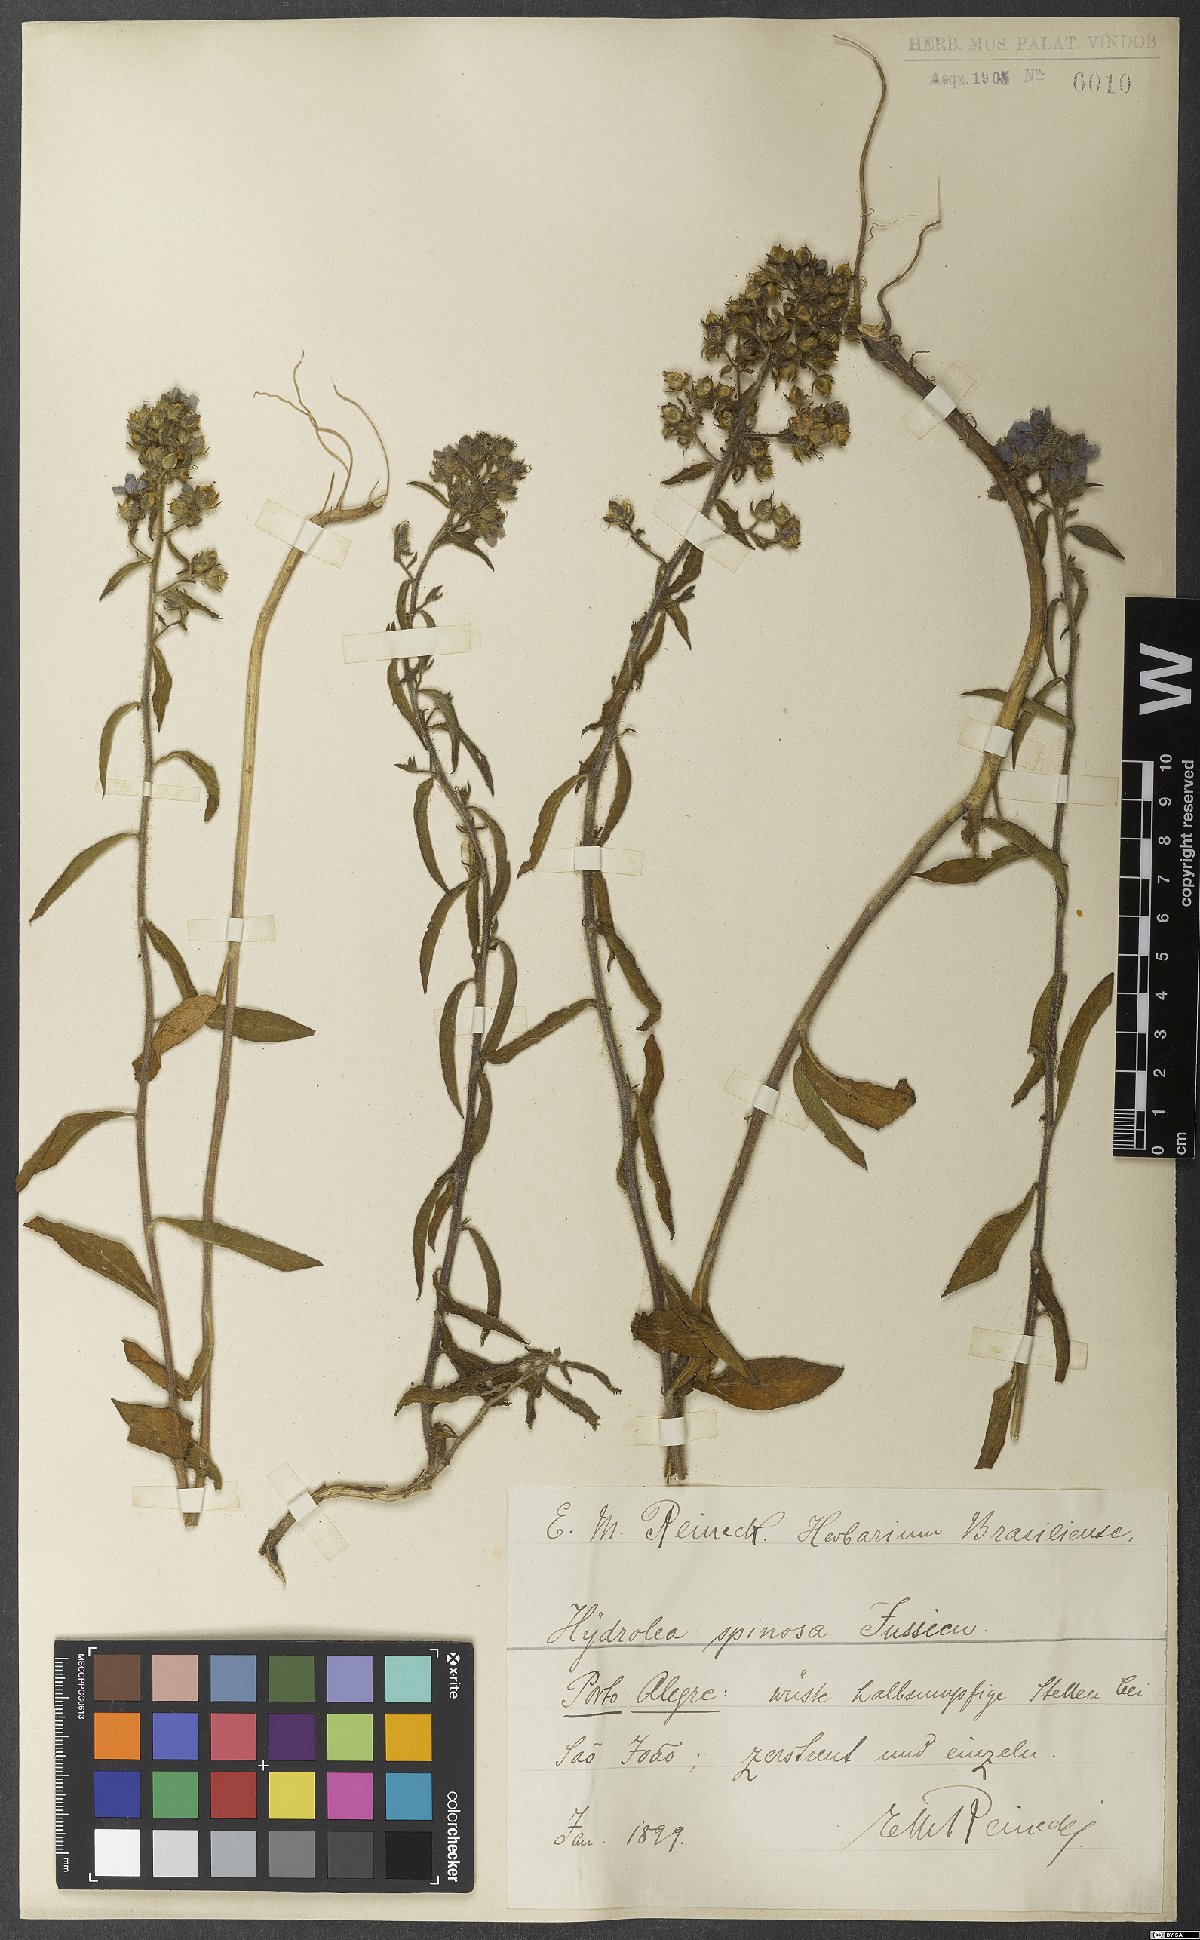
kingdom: Plantae
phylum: Tracheophyta
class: Magnoliopsida
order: Solanales
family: Hydroleaceae
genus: Hydrolea
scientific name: Hydrolea spinosa
